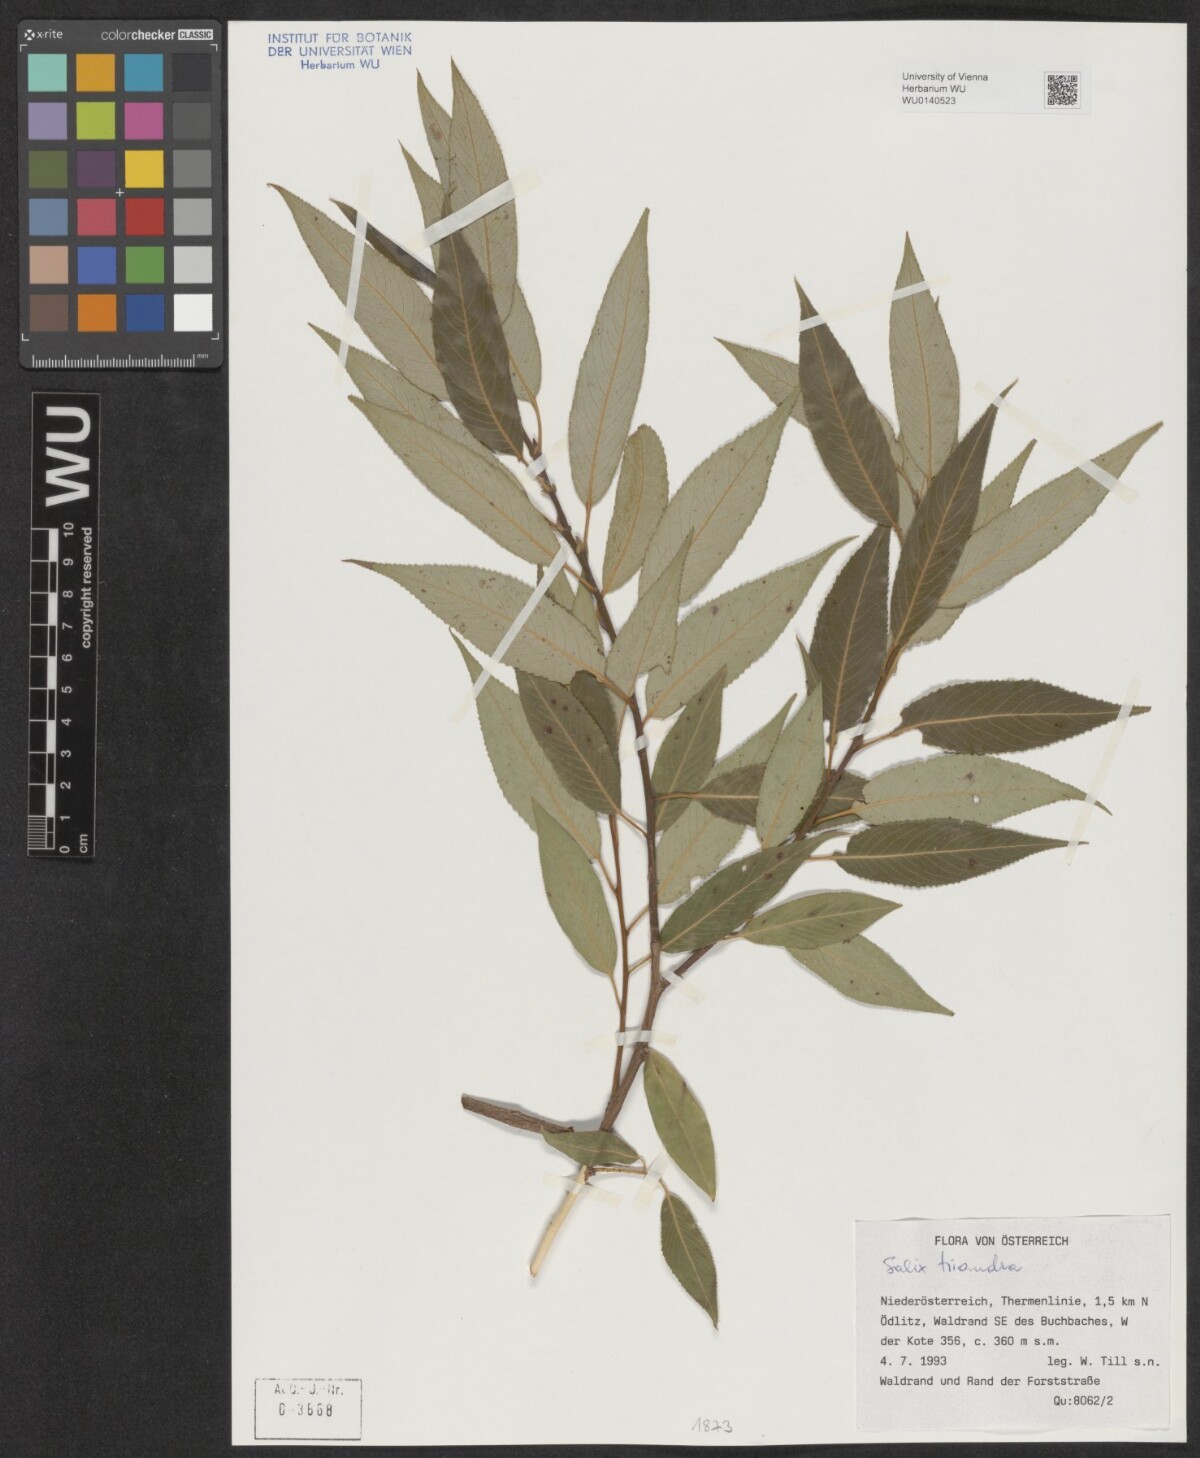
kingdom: Plantae
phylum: Tracheophyta
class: Magnoliopsida
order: Malpighiales
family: Salicaceae
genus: Salix
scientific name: Salix triandra
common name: Almond willow
